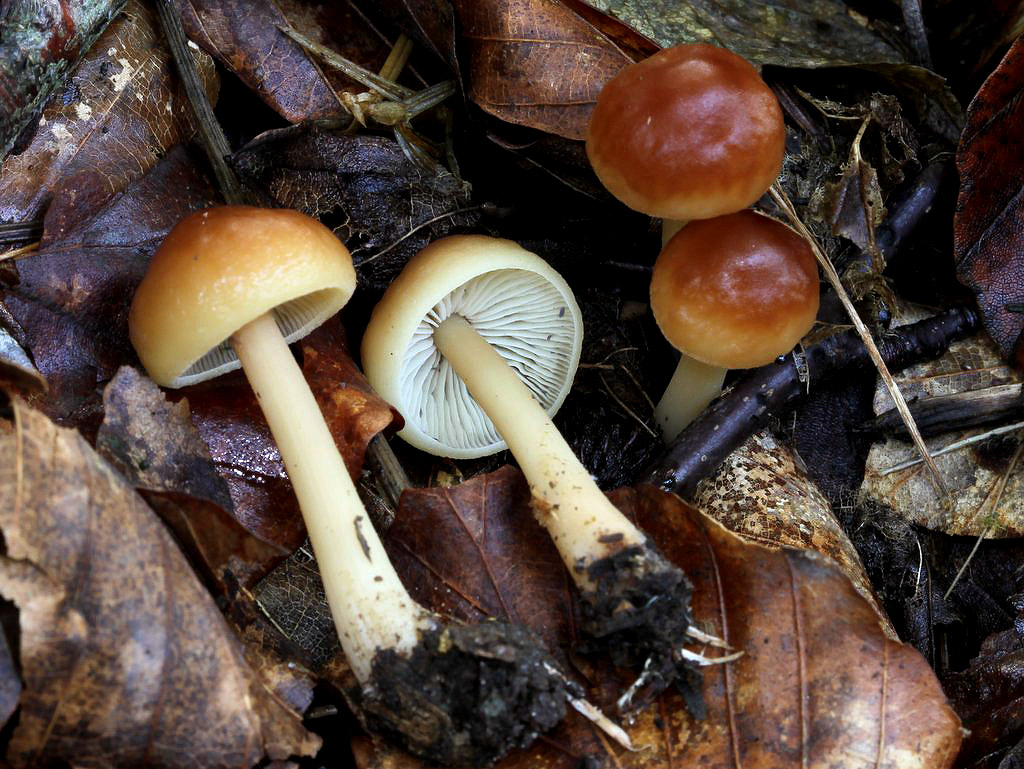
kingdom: Fungi
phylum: Basidiomycota
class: Agaricomycetes
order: Agaricales
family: Omphalotaceae
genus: Gymnopus
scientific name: Gymnopus dryophilus
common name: løv-fladhat
